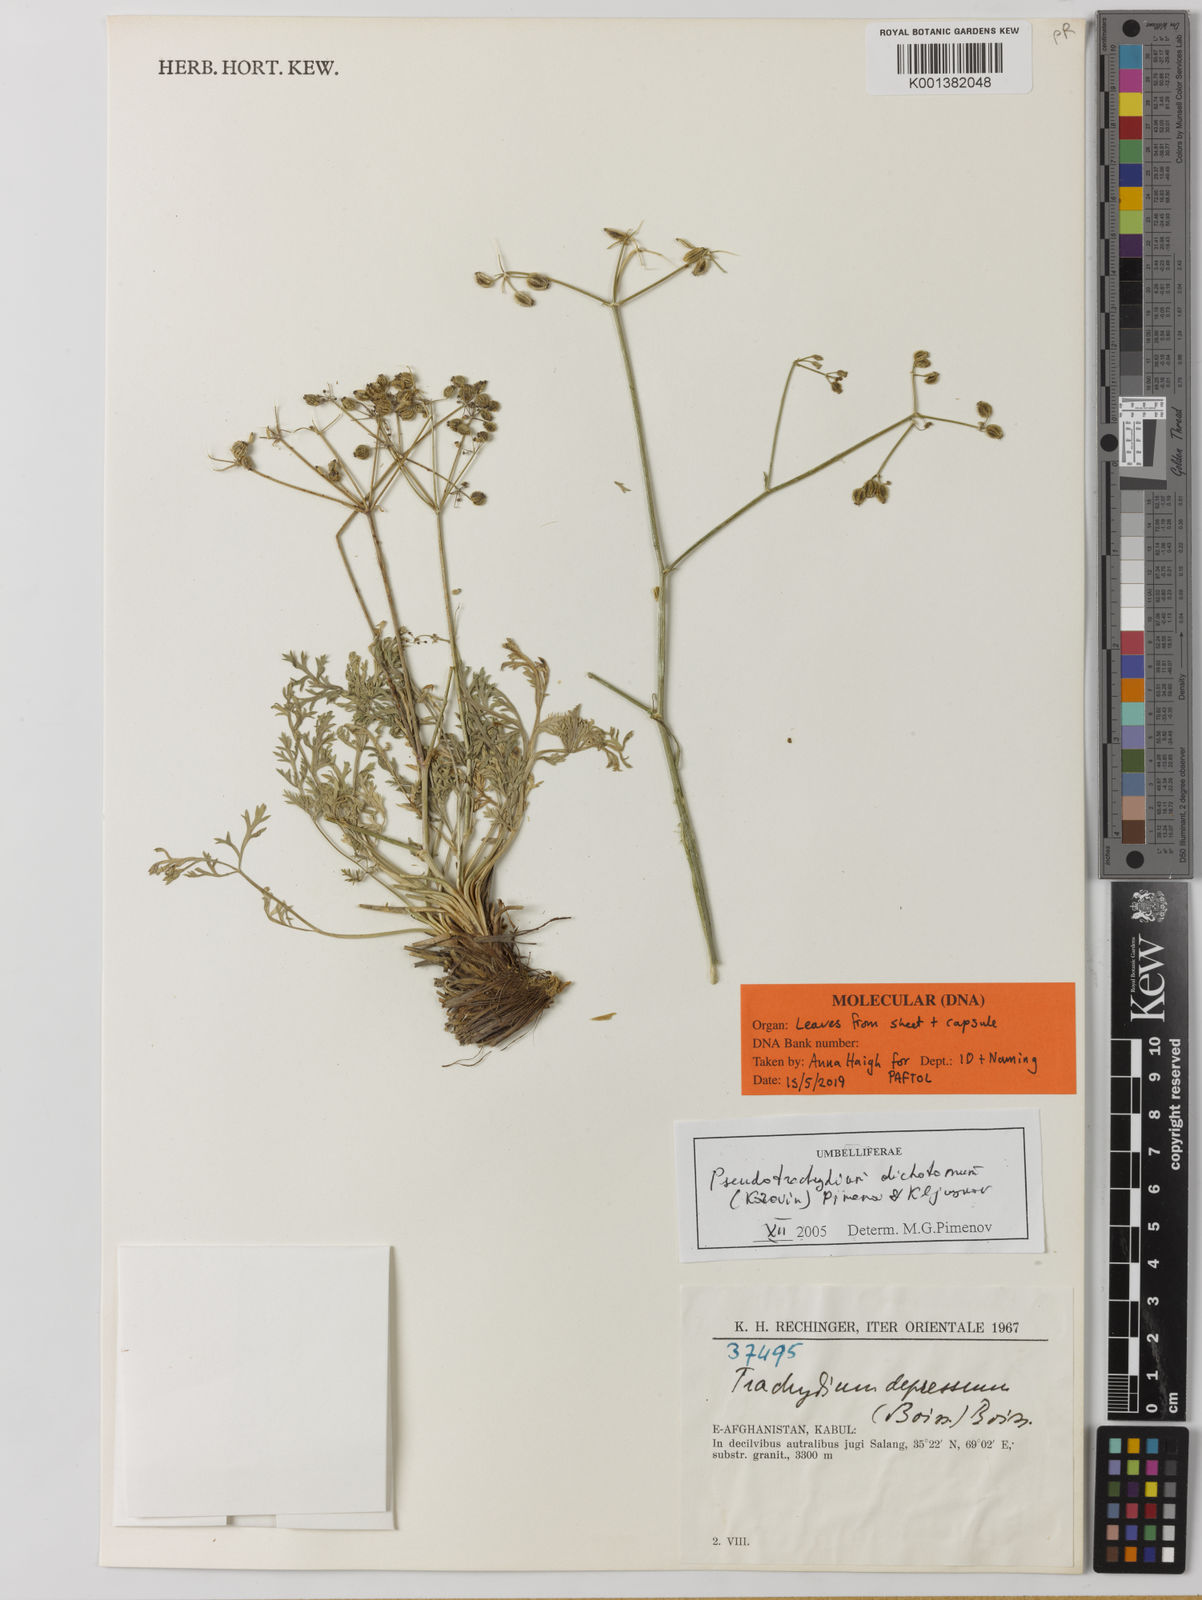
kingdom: Plantae
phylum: Tracheophyta
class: Magnoliopsida
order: Apiales
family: Apiaceae
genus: Pseudotrachydium
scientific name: Pseudotrachydium dichotomum
